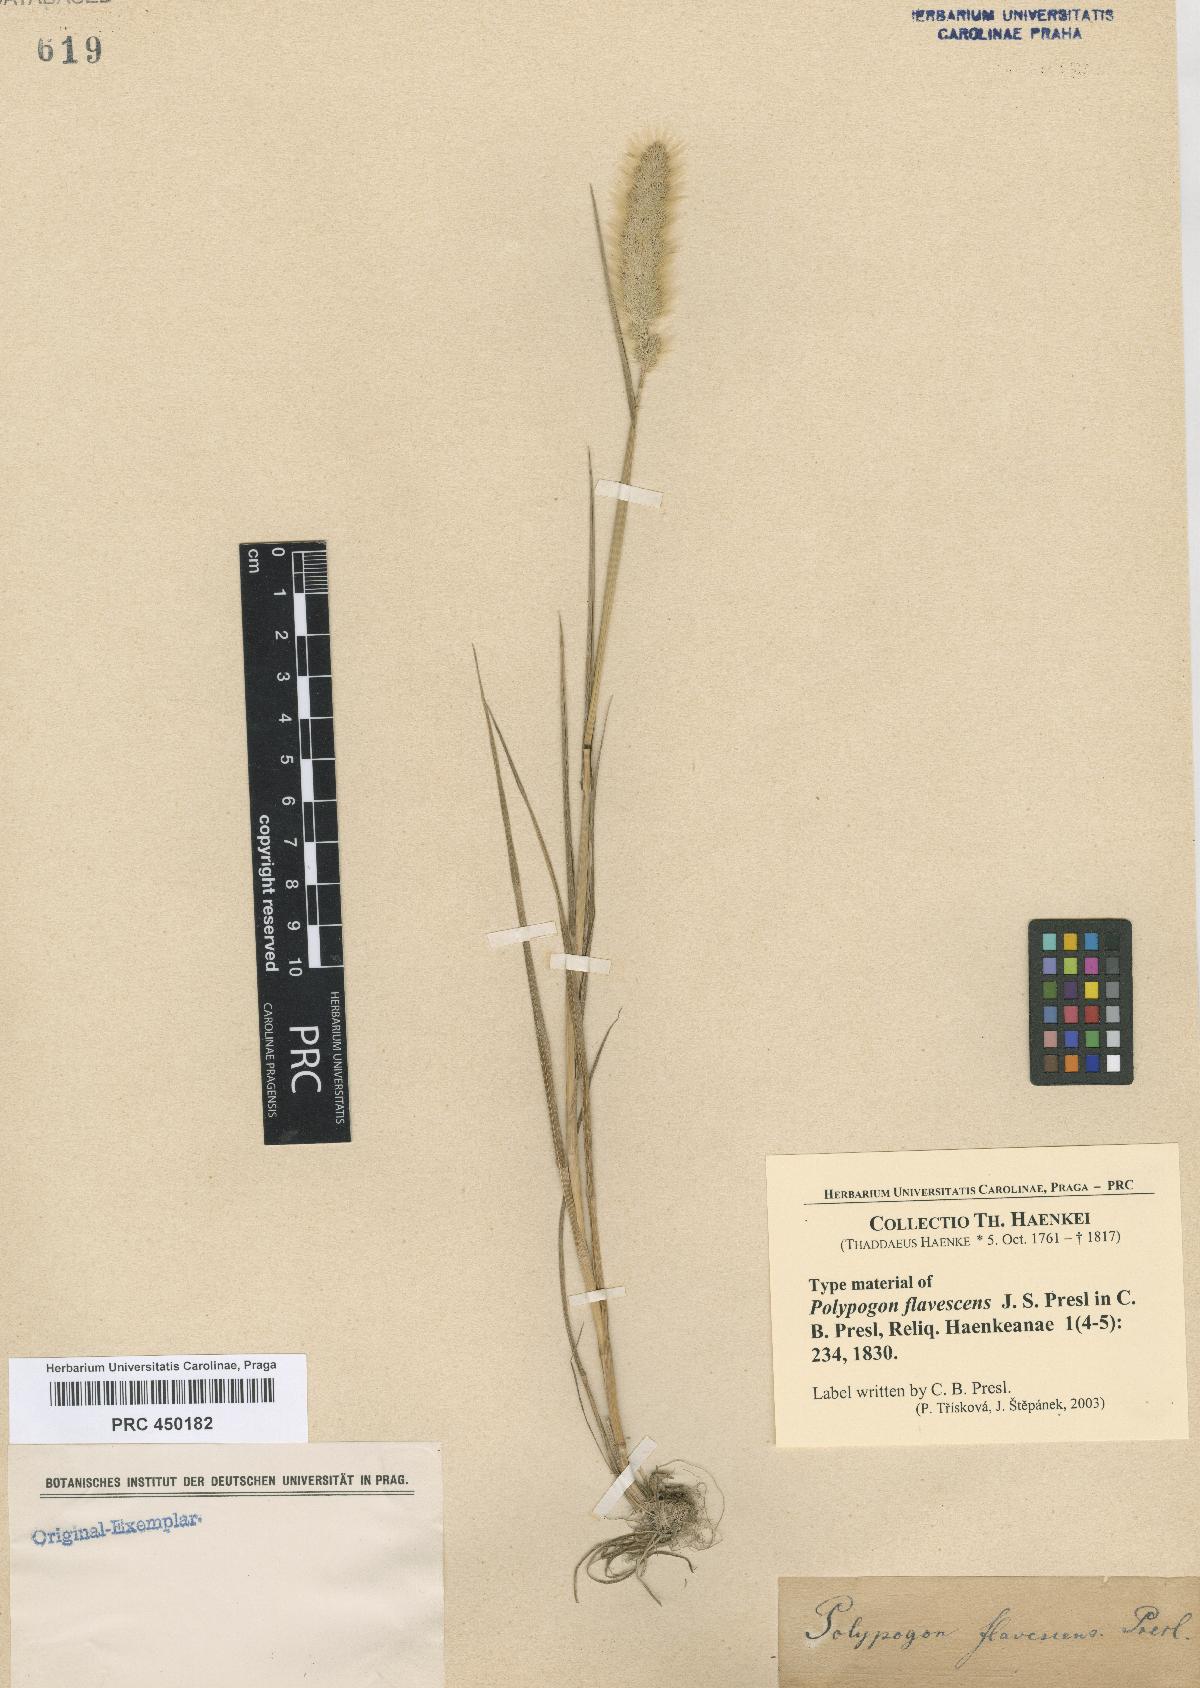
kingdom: Plantae
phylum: Tracheophyta
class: Liliopsida
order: Poales
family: Poaceae
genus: Polypogon
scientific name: Polypogon monspeliensis
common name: Annual rabbitsfoot grass
